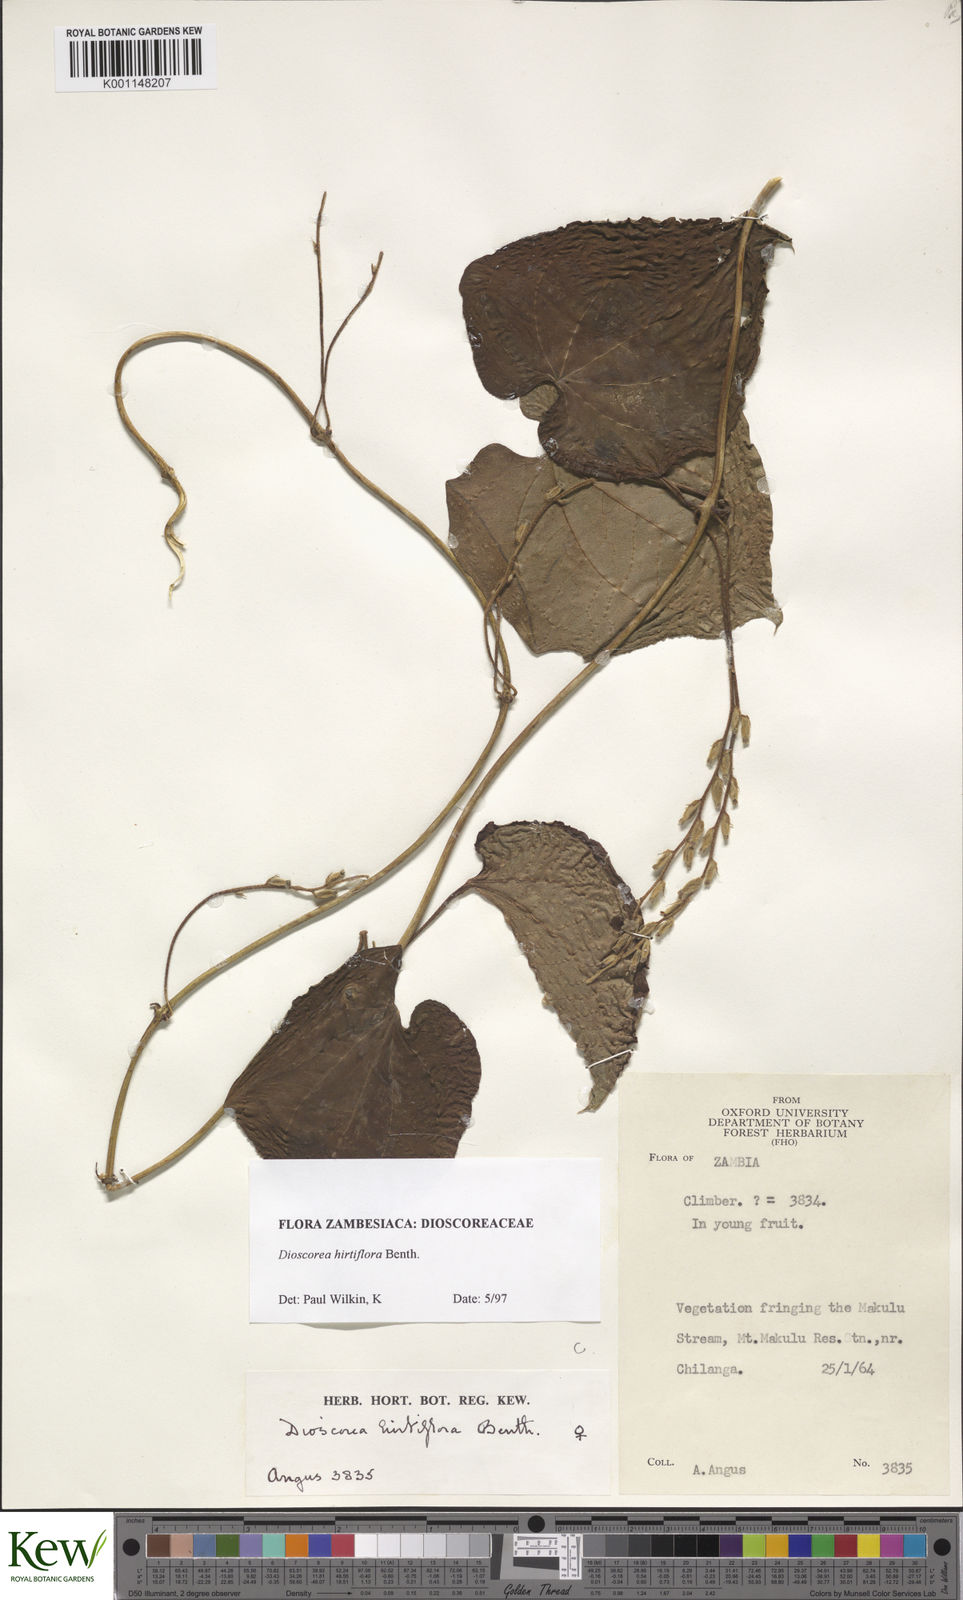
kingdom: Plantae
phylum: Tracheophyta
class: Liliopsida
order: Dioscoreales
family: Dioscoreaceae
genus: Dioscorea
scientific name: Dioscorea hirtiflora
